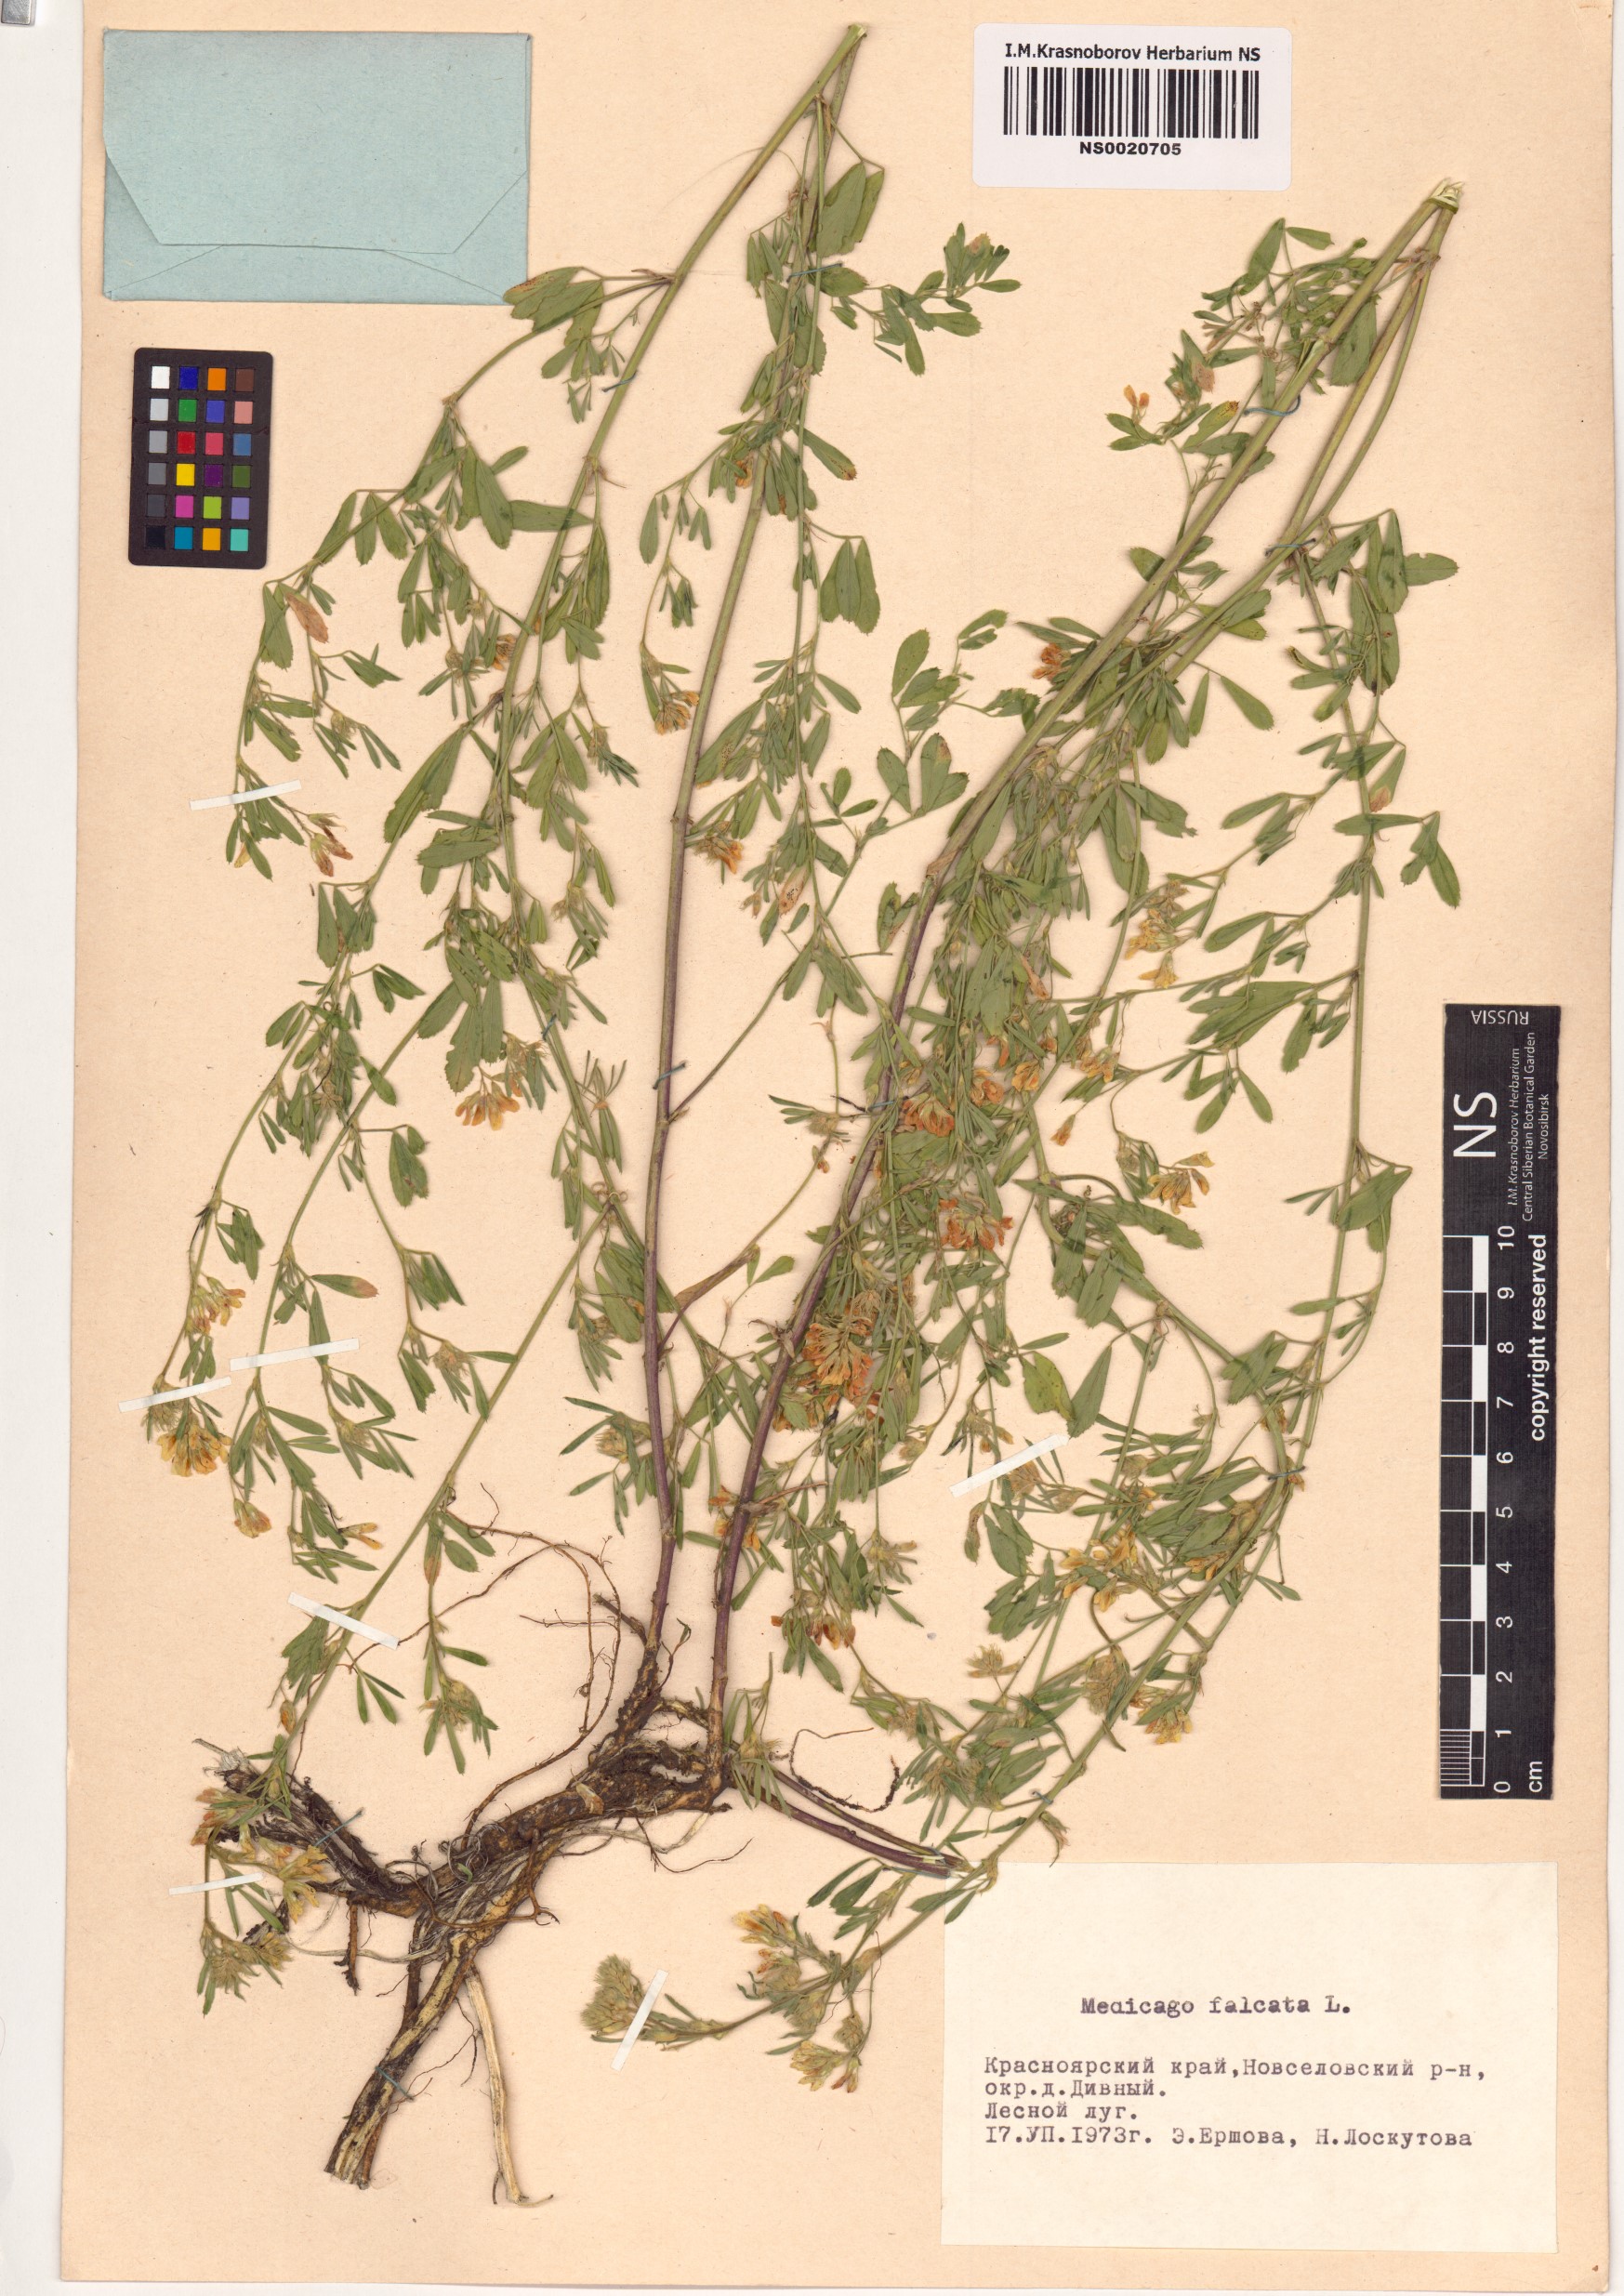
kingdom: Plantae
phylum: Tracheophyta
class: Magnoliopsida
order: Fabales
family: Fabaceae
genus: Medicago
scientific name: Medicago falcata
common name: Sickle medick
